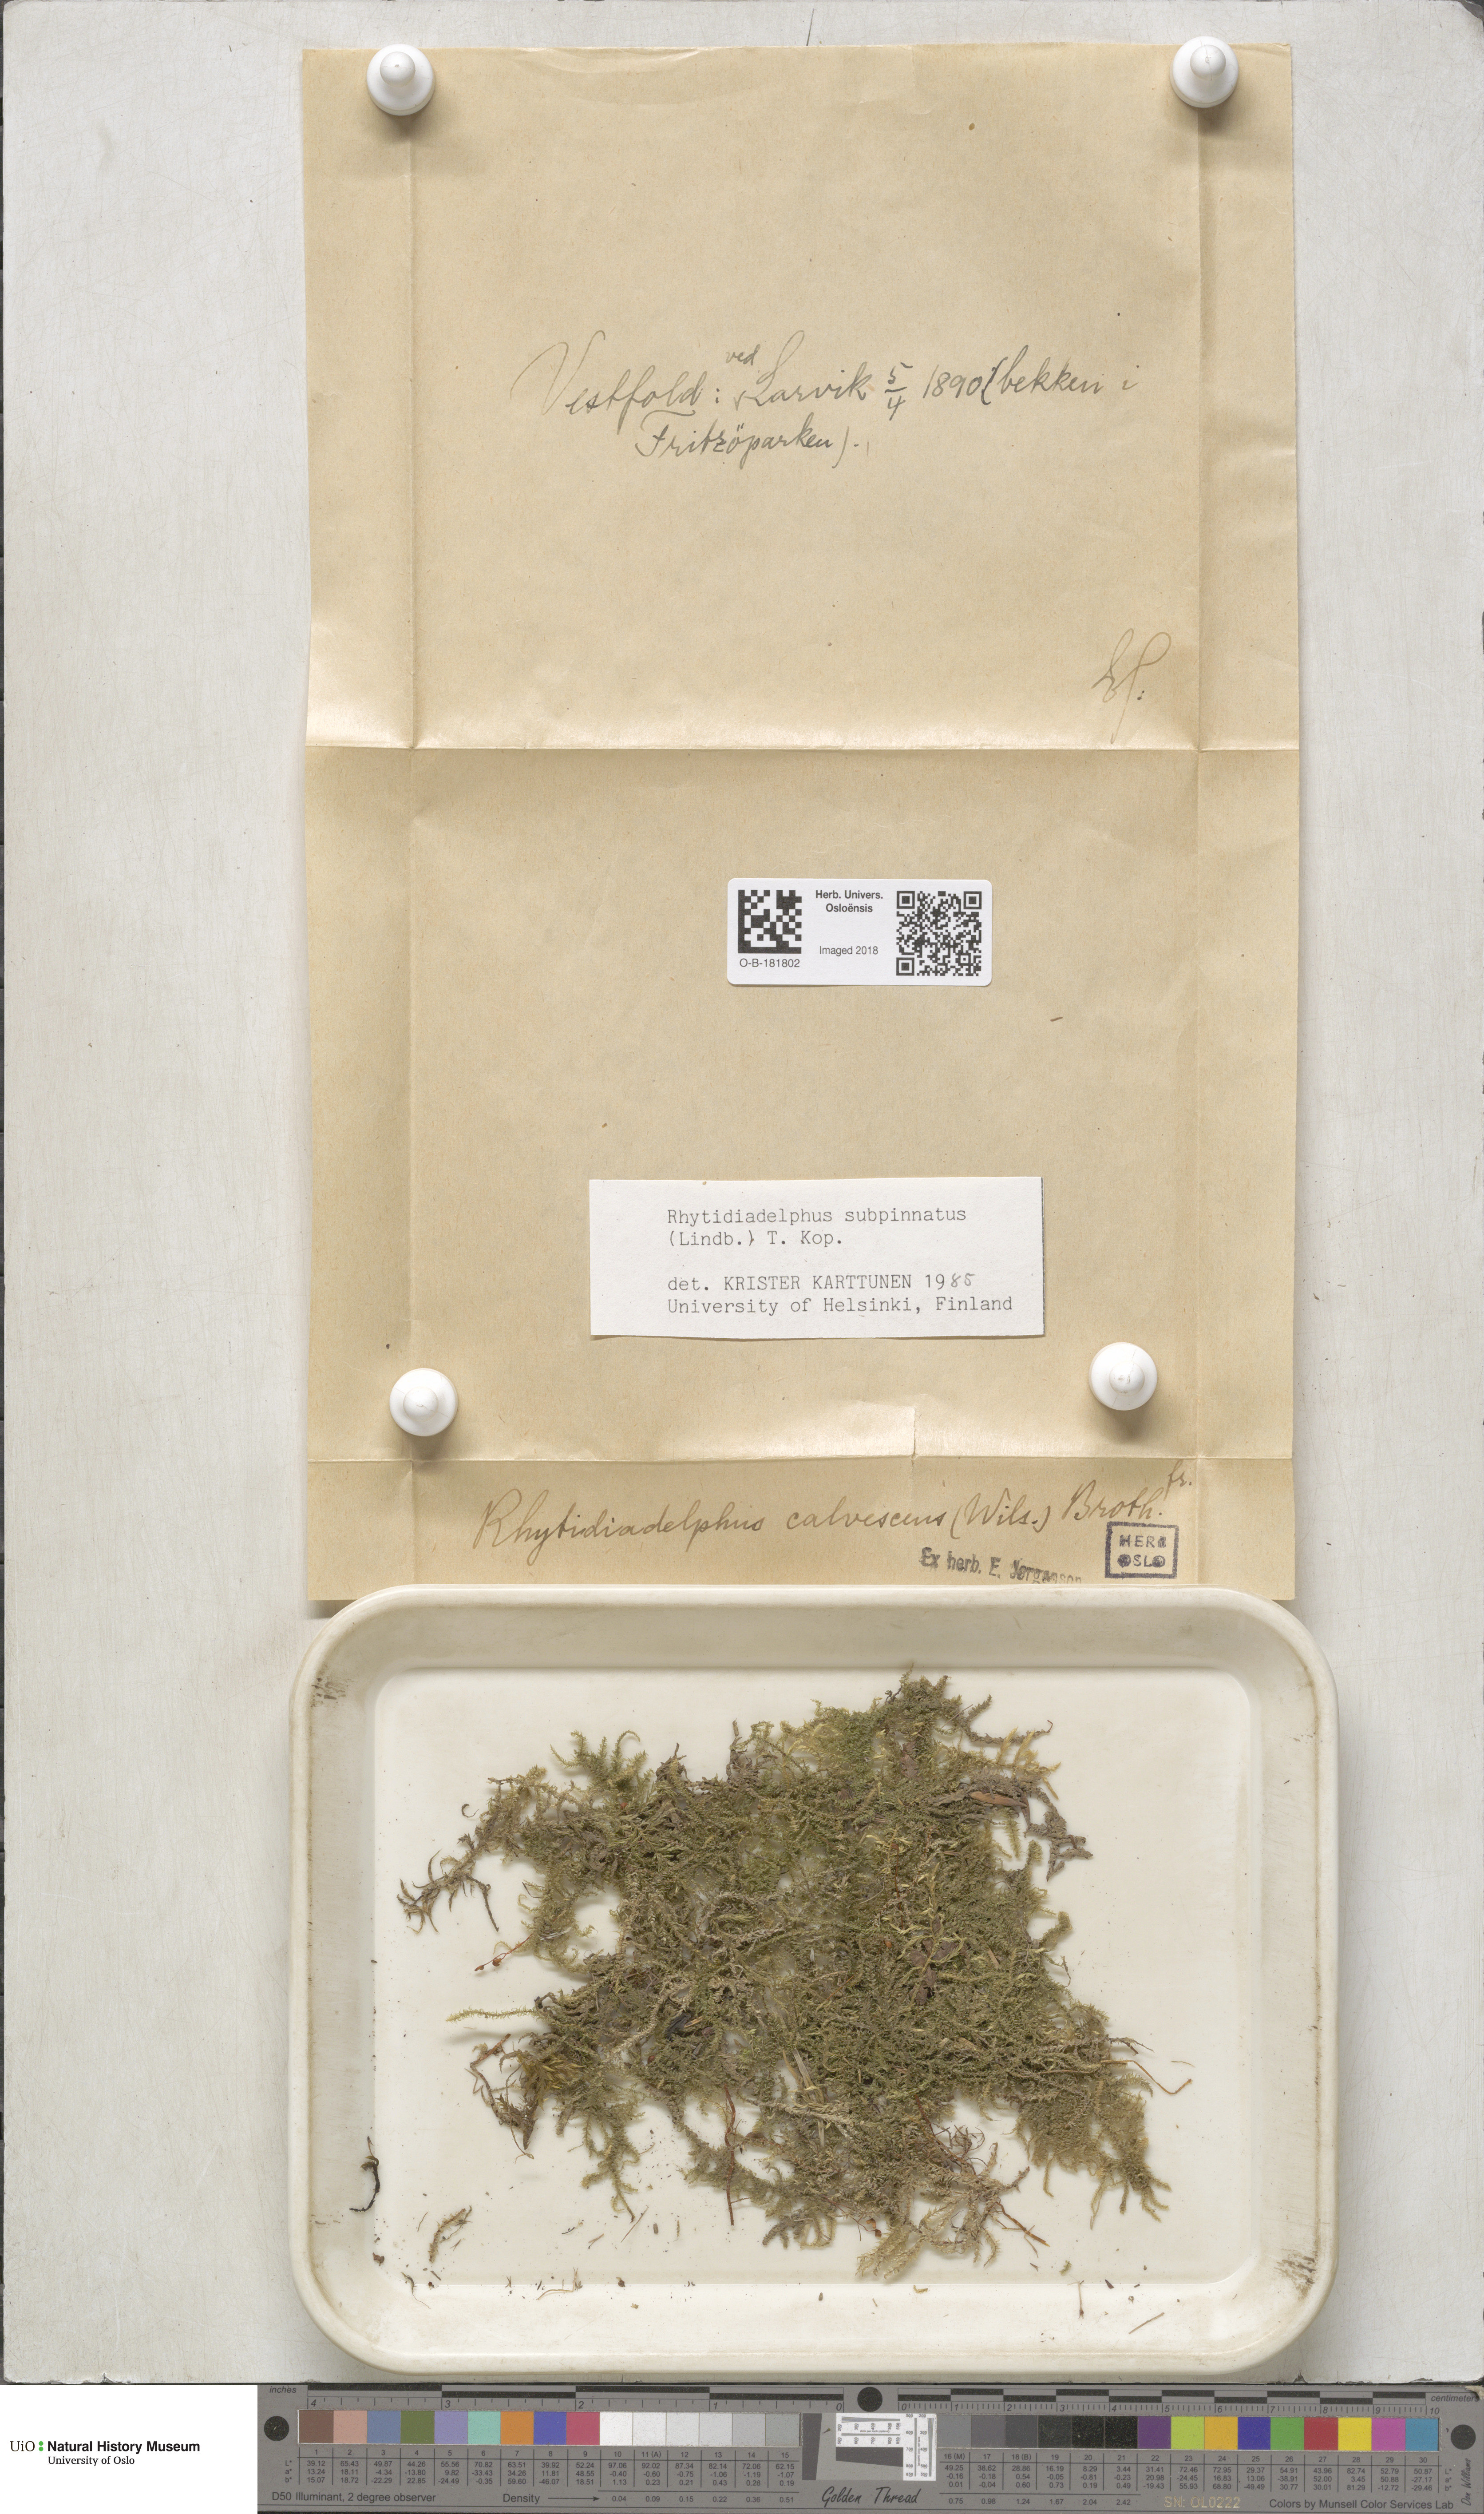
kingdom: Plantae
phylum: Bryophyta
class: Bryopsida
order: Hypnales
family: Hylocomiaceae
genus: Rhytidiadelphus
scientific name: Rhytidiadelphus subpinnatus
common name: Subpinnate gooseneck moss
